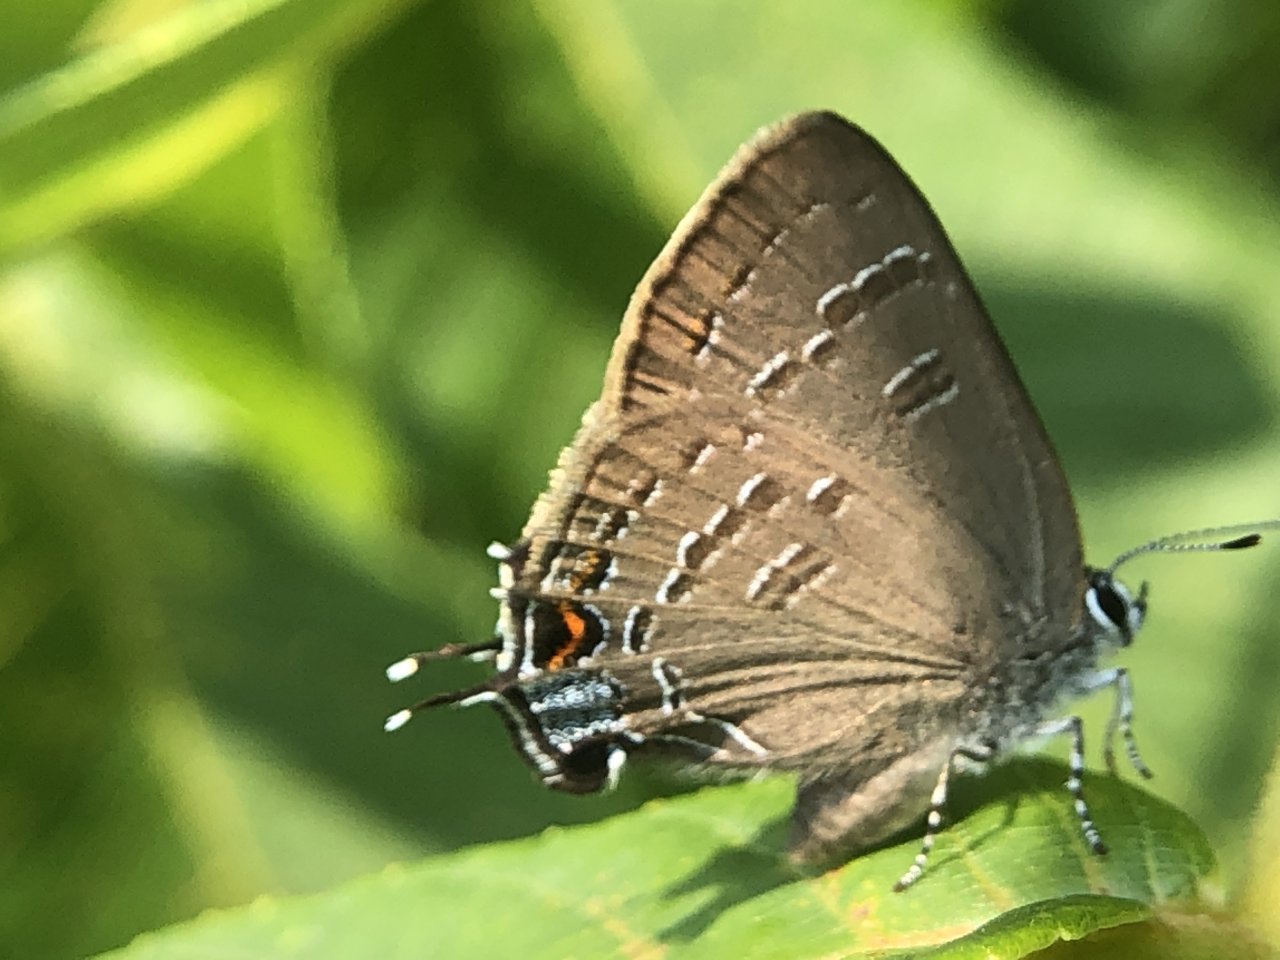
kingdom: Animalia
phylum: Arthropoda
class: Insecta
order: Lepidoptera
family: Lycaenidae
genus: Satyrium
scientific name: Satyrium calanus
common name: Banded Hairstreak
